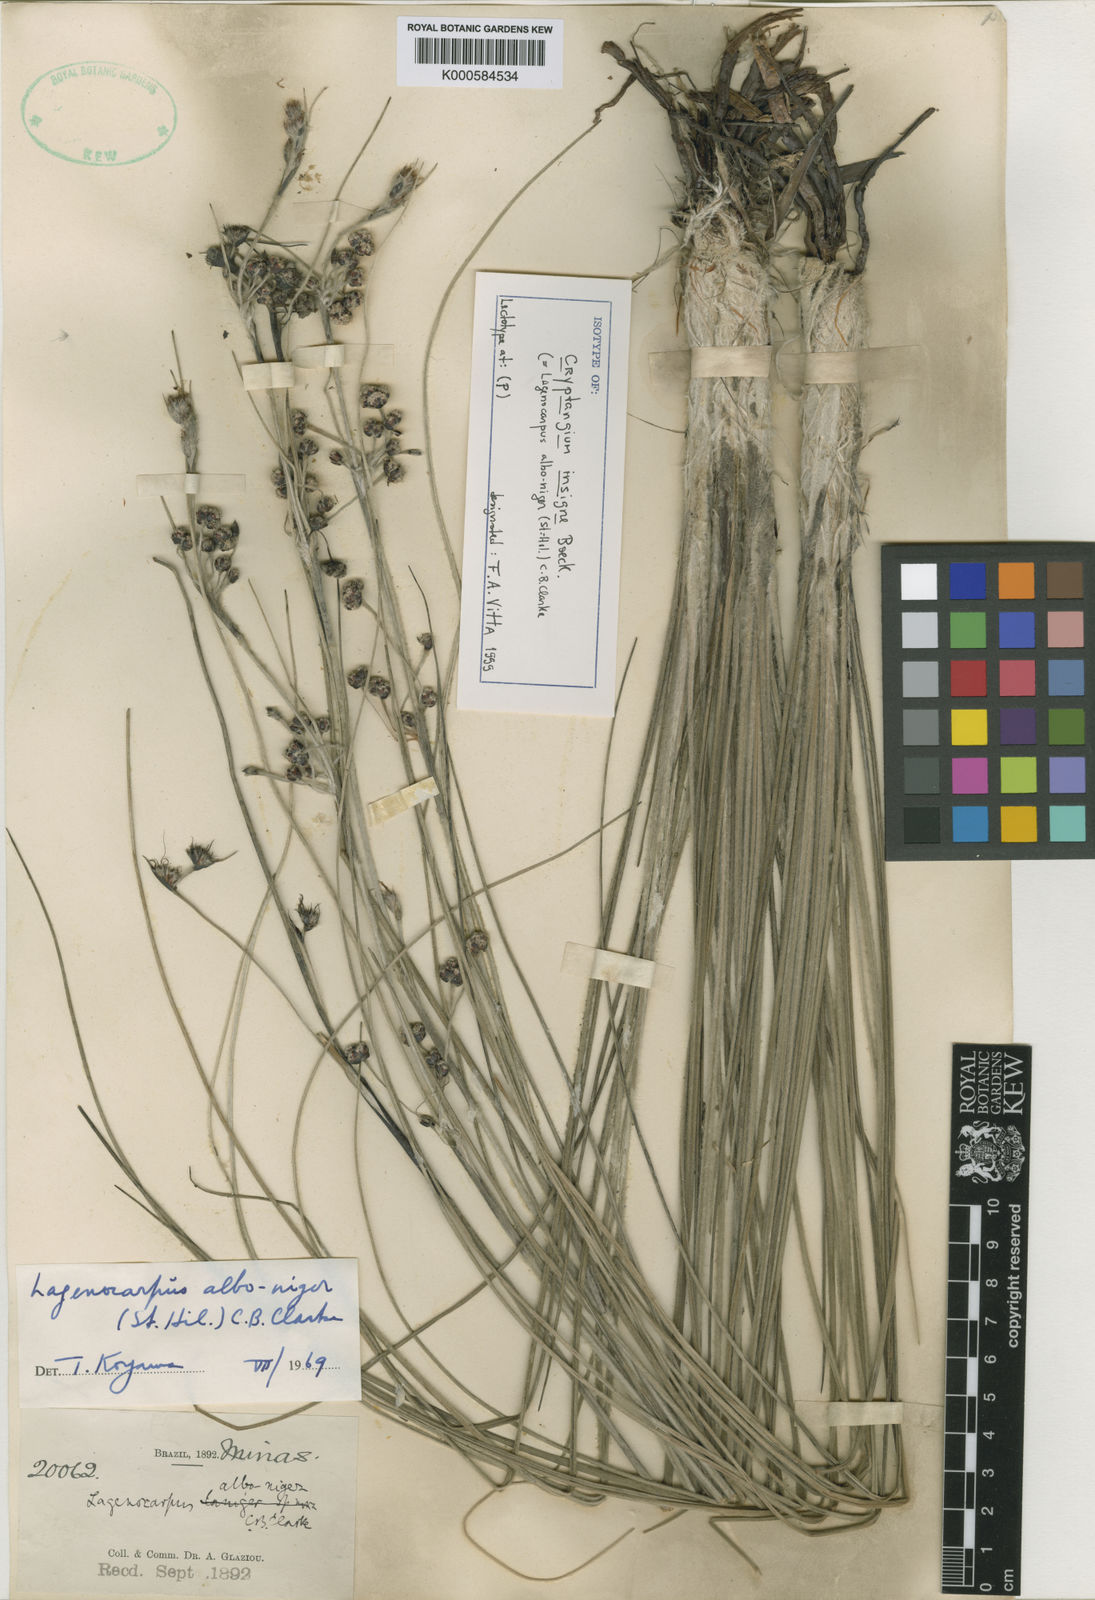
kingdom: Plantae
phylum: Tracheophyta
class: Liliopsida
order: Poales
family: Cyperaceae
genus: Lagenocarpus
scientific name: Lagenocarpus alboniger
